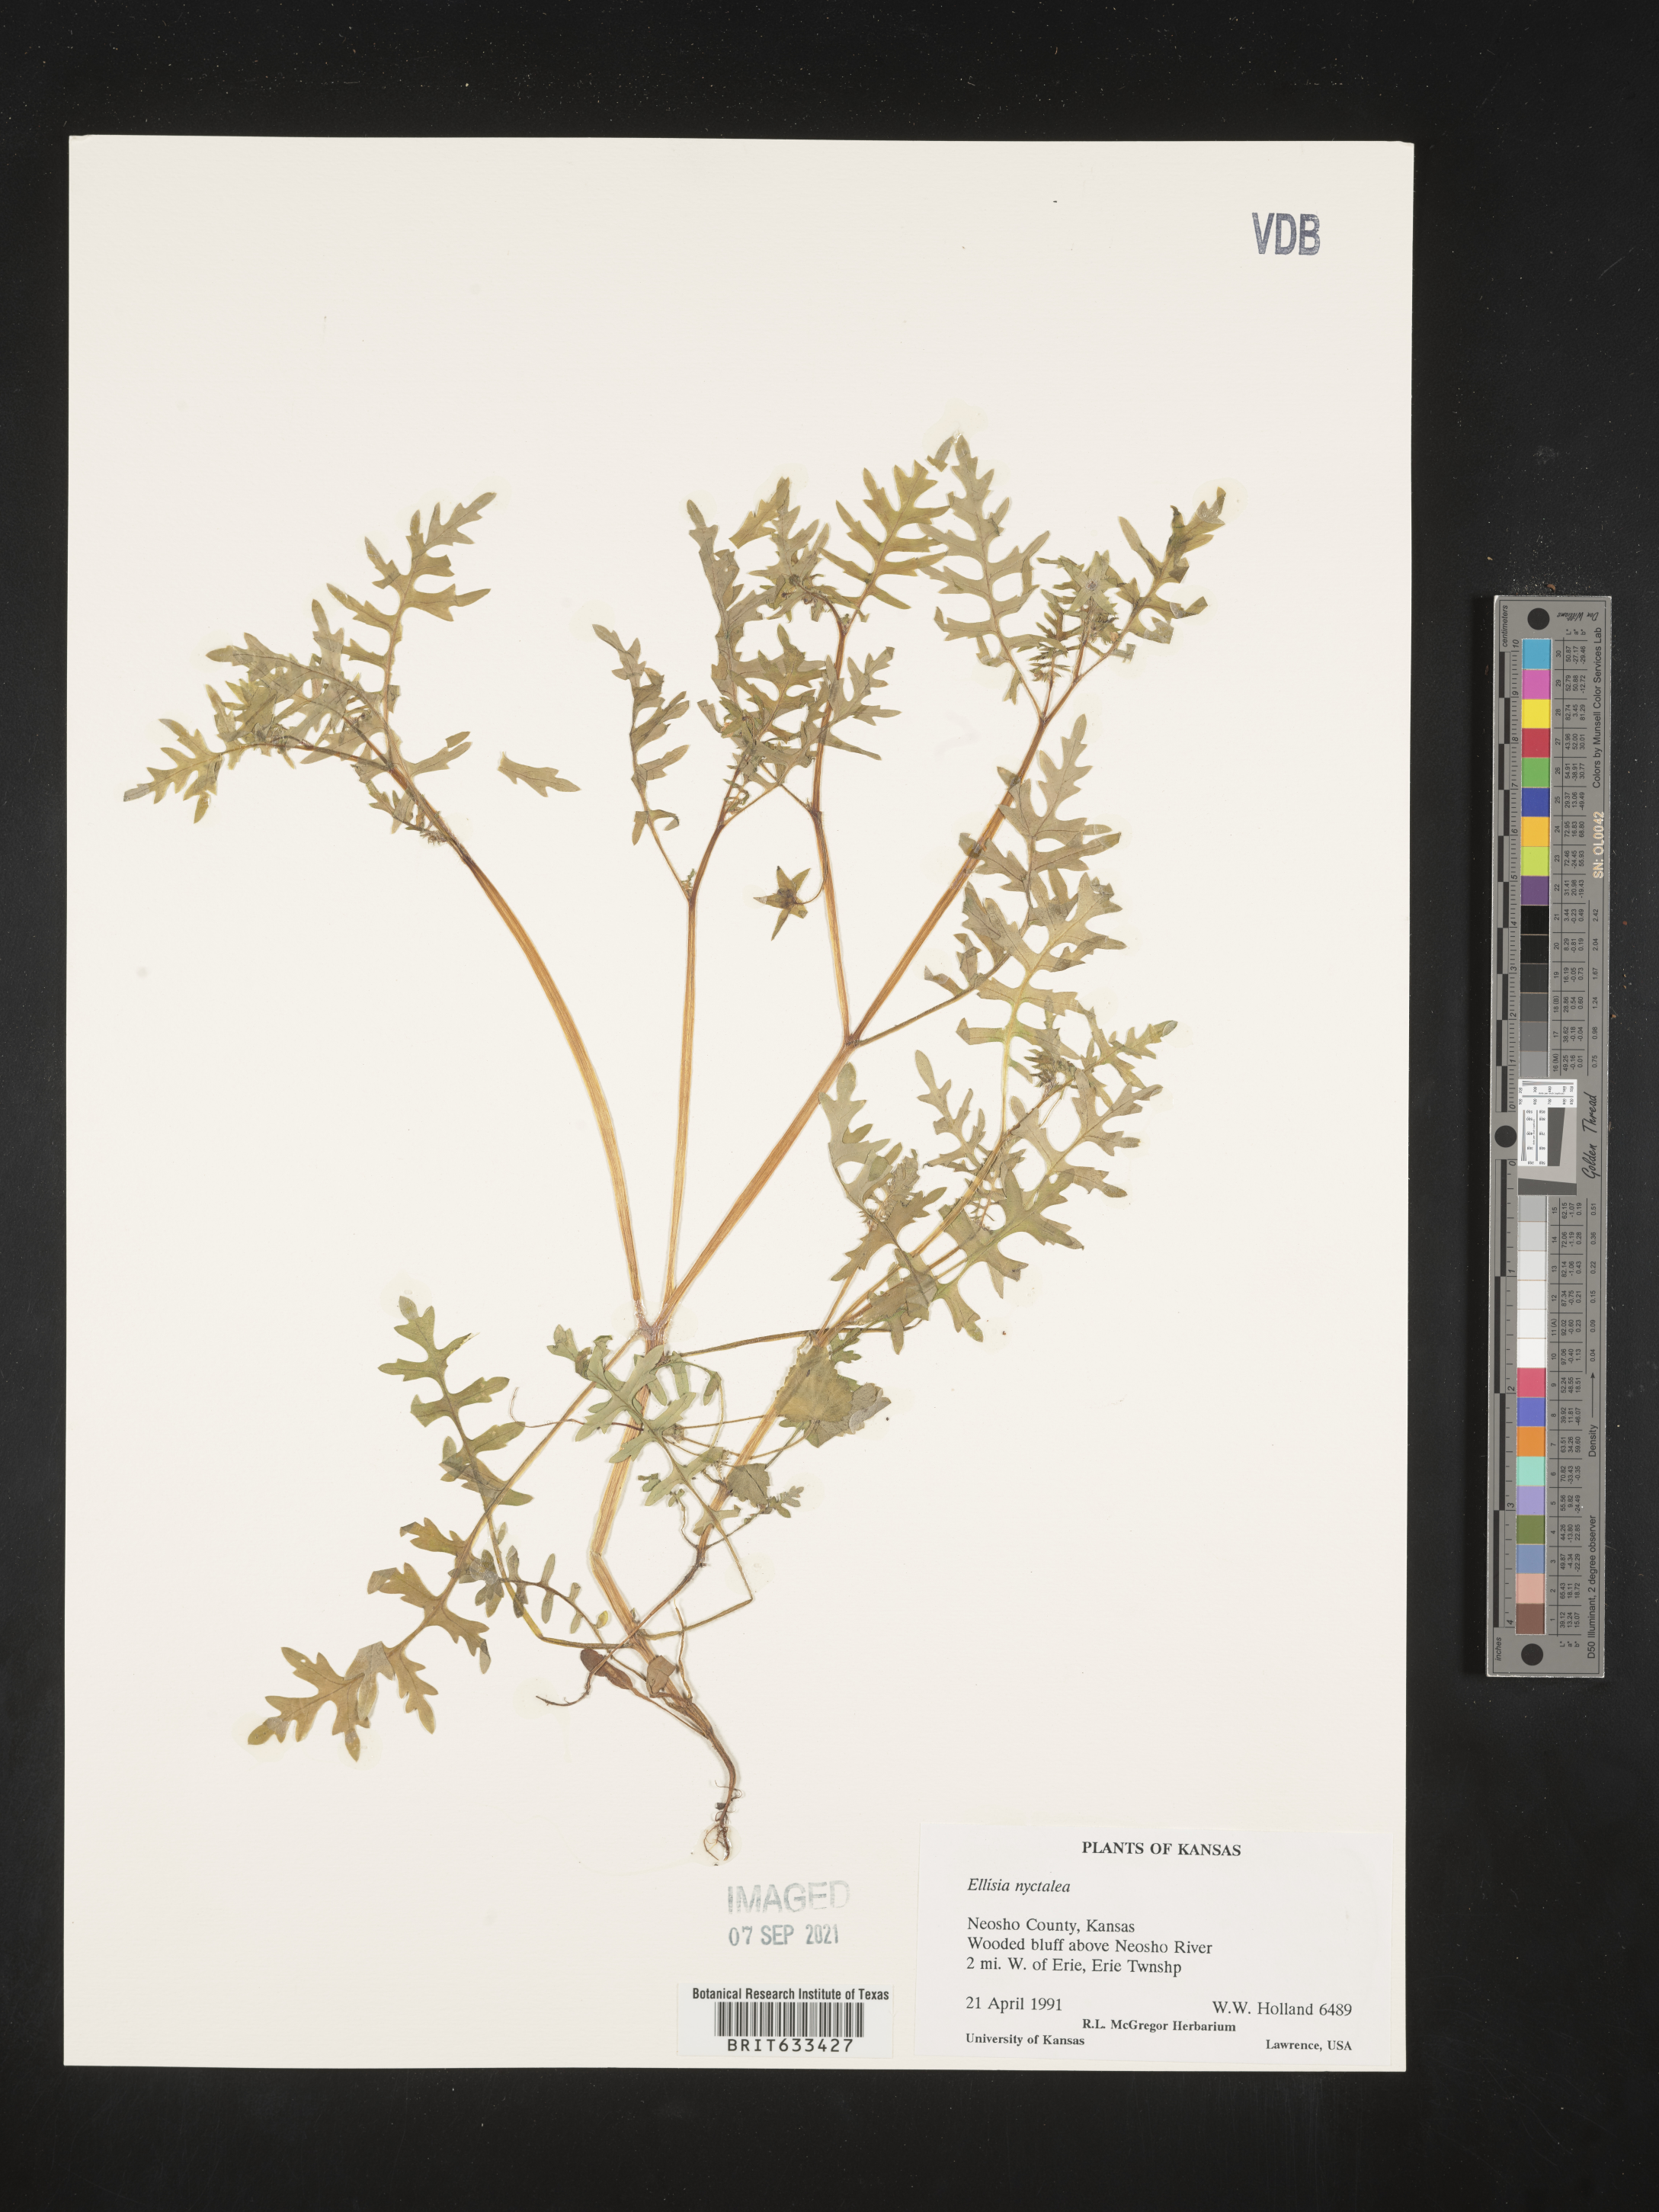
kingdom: Plantae
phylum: Tracheophyta
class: Magnoliopsida
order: Boraginales
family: Hydrophyllaceae
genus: Ellisia
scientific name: Ellisia nyctelea
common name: Aunt lucy
